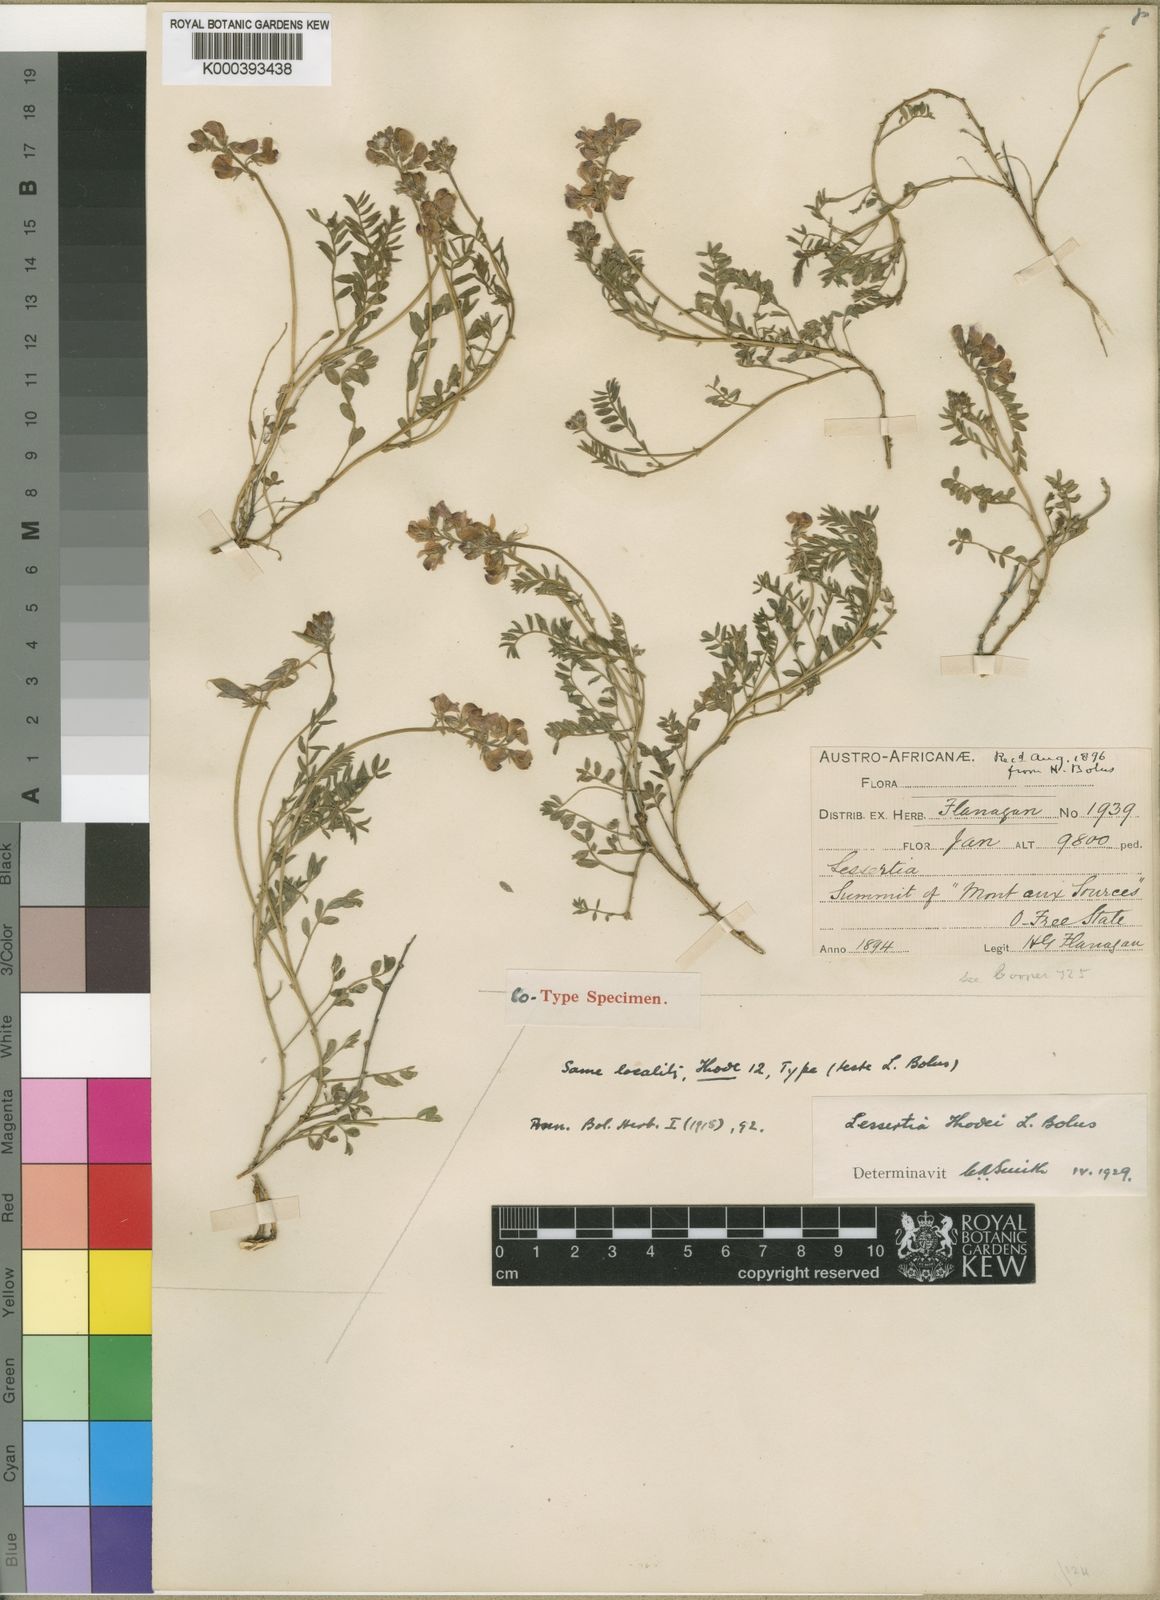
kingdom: Plantae
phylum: Tracheophyta
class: Magnoliopsida
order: Fabales
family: Fabaceae
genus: Lessertia
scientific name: Lessertia thodei
